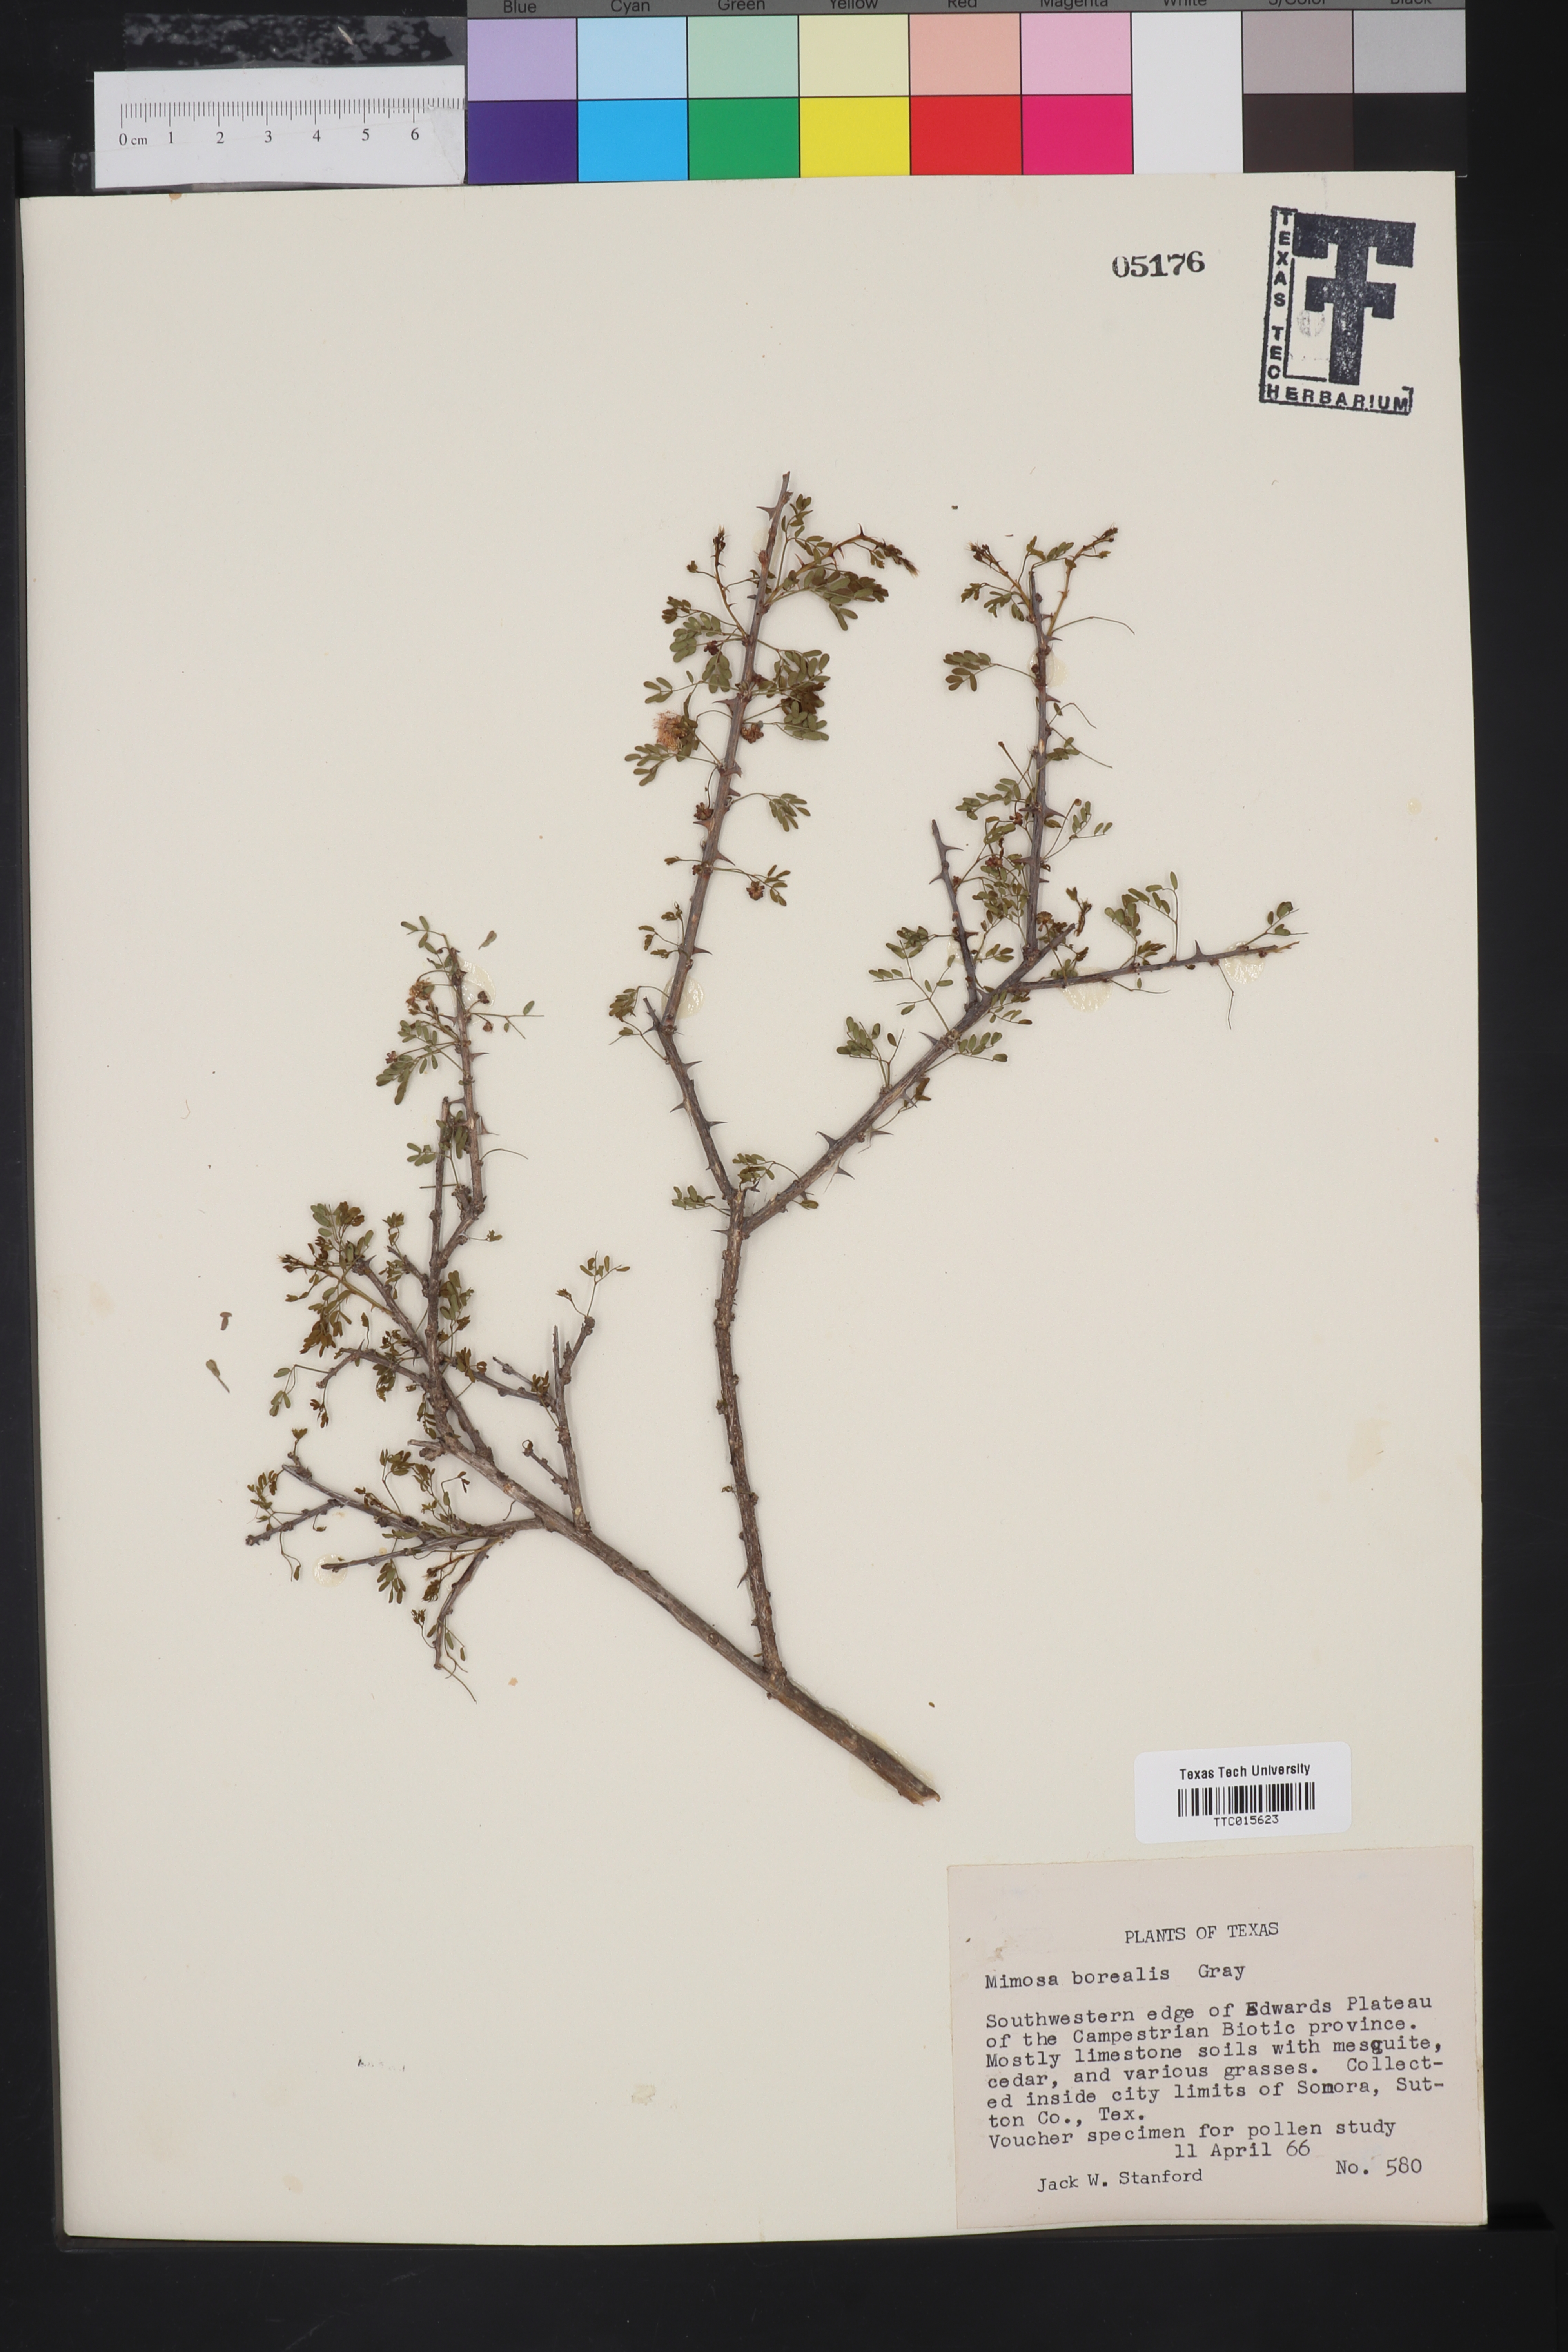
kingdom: Plantae
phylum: Tracheophyta
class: Magnoliopsida
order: Fabales
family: Fabaceae
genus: Mimosa
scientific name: Mimosa borealis
